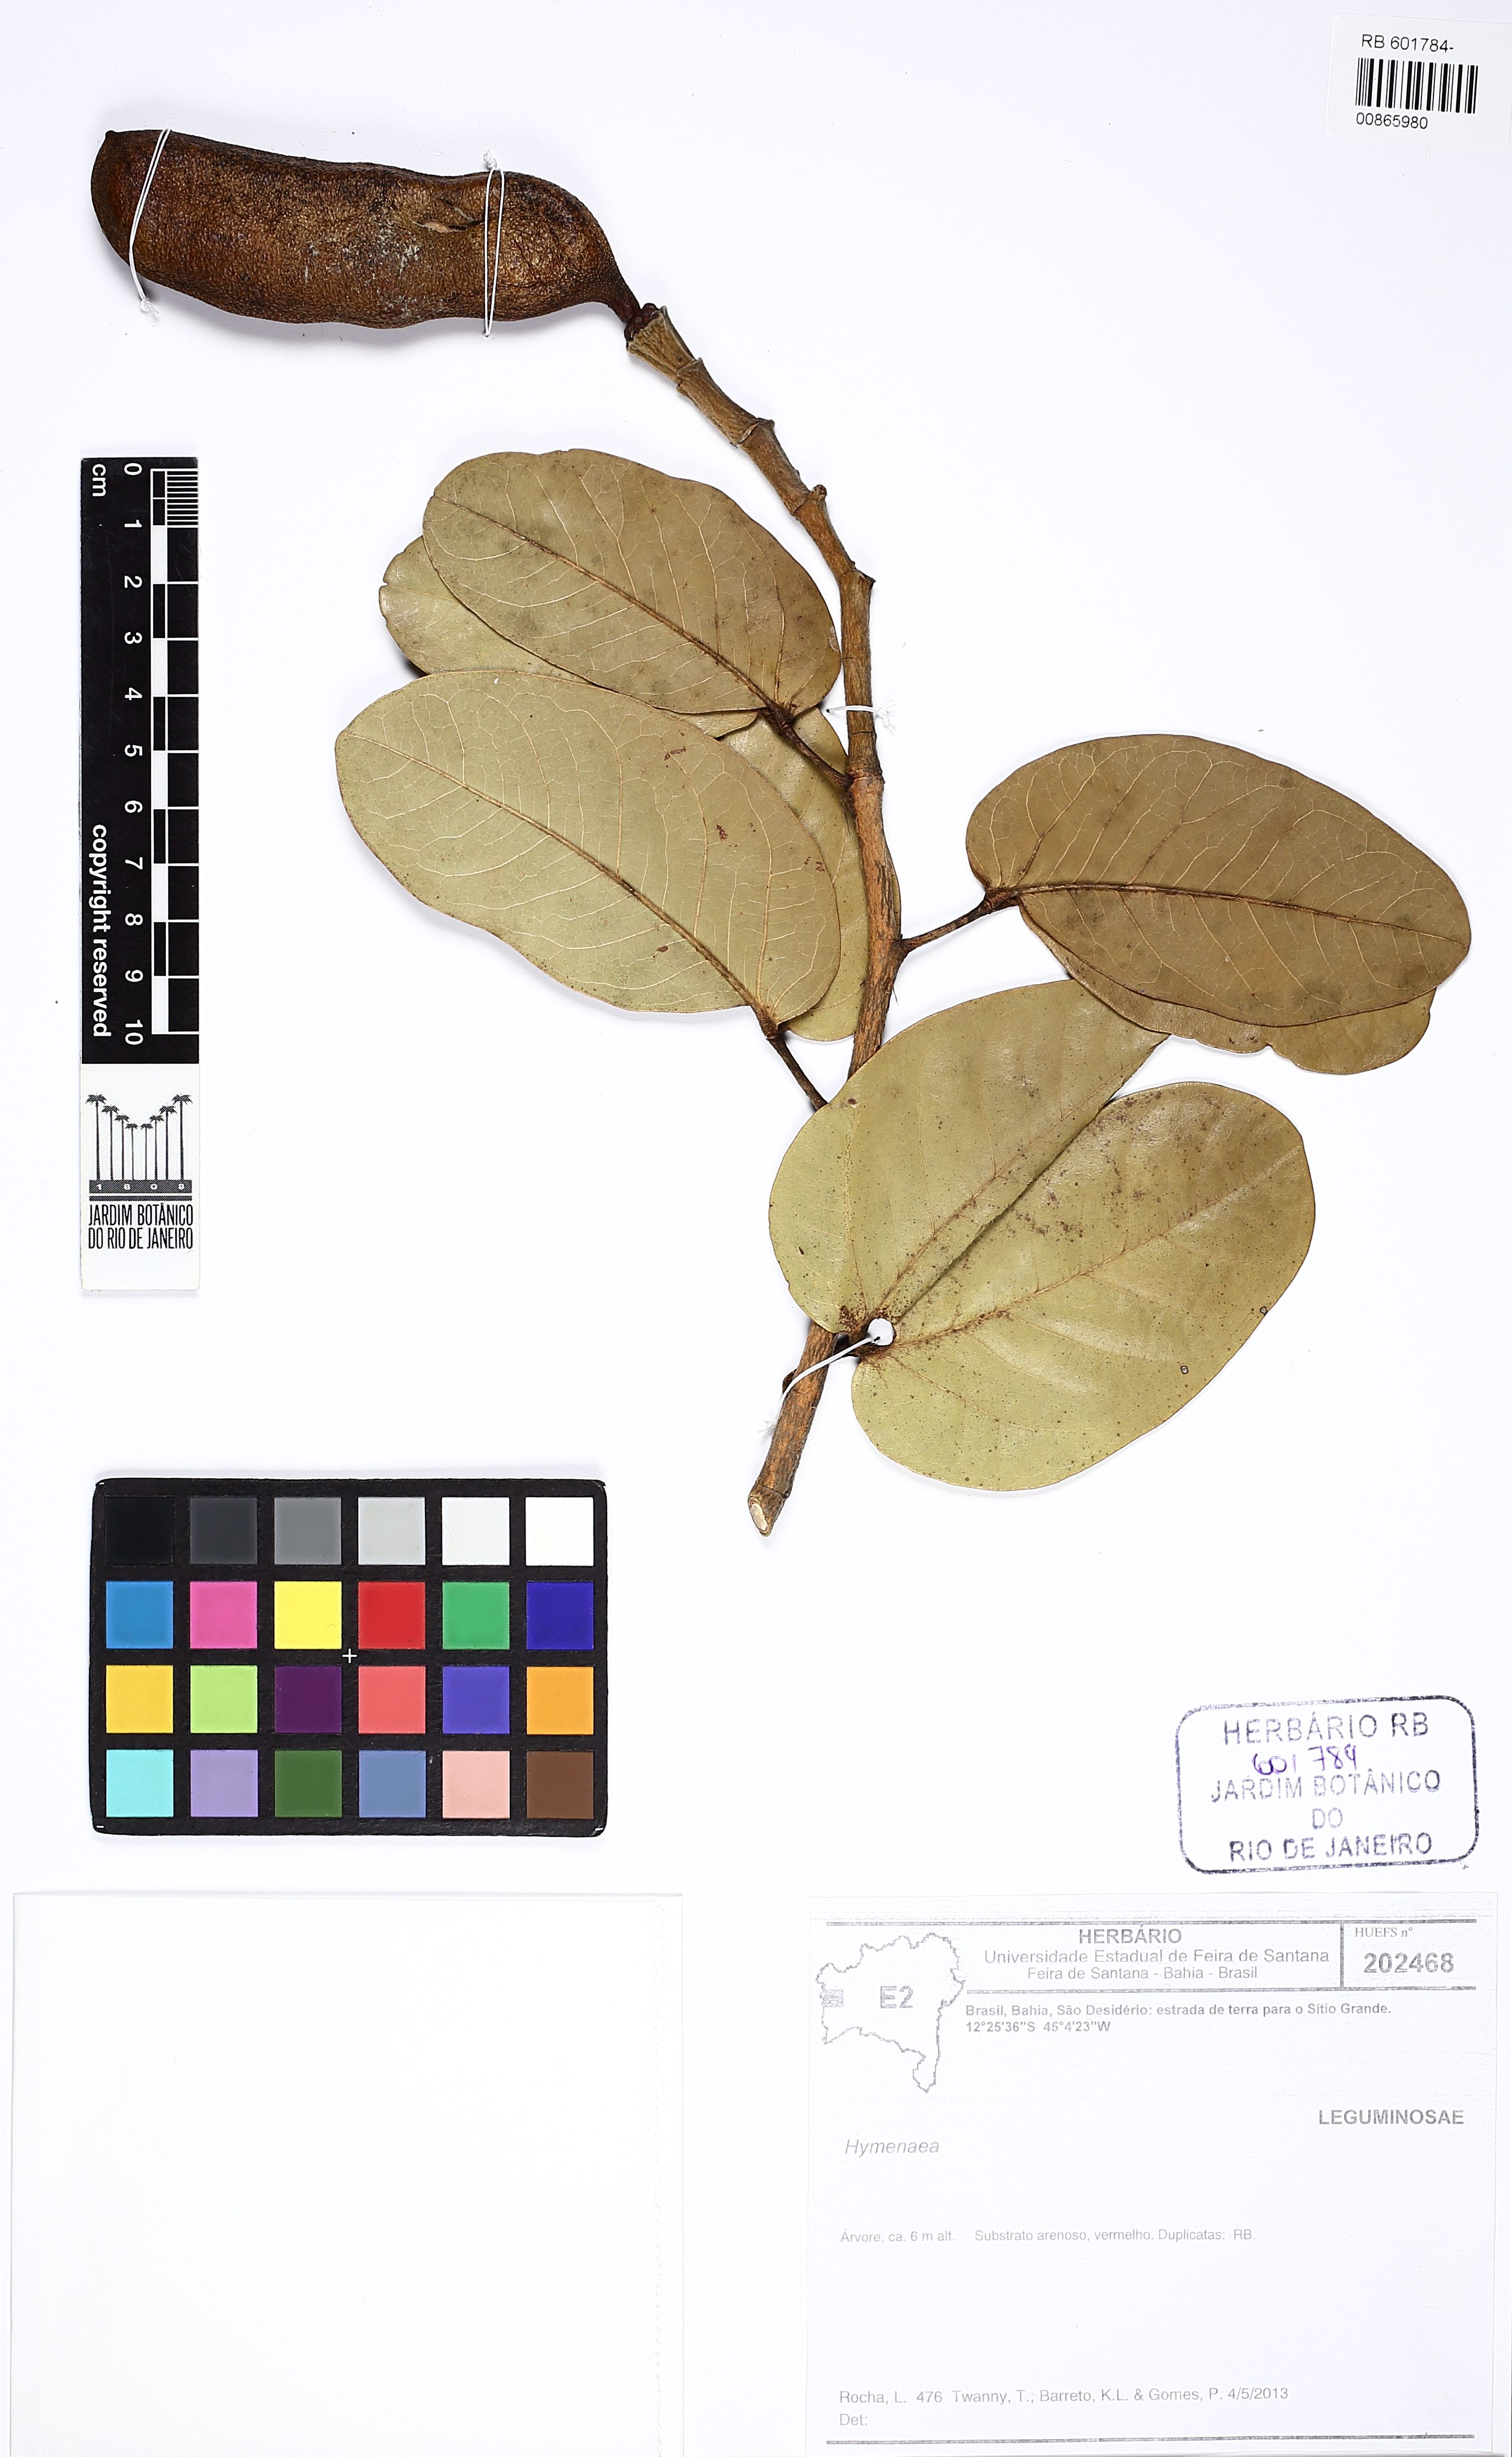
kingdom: Plantae
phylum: Tracheophyta
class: Magnoliopsida
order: Fabales
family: Fabaceae
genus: Hymenaea
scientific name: Hymenaea stigonocarpa
